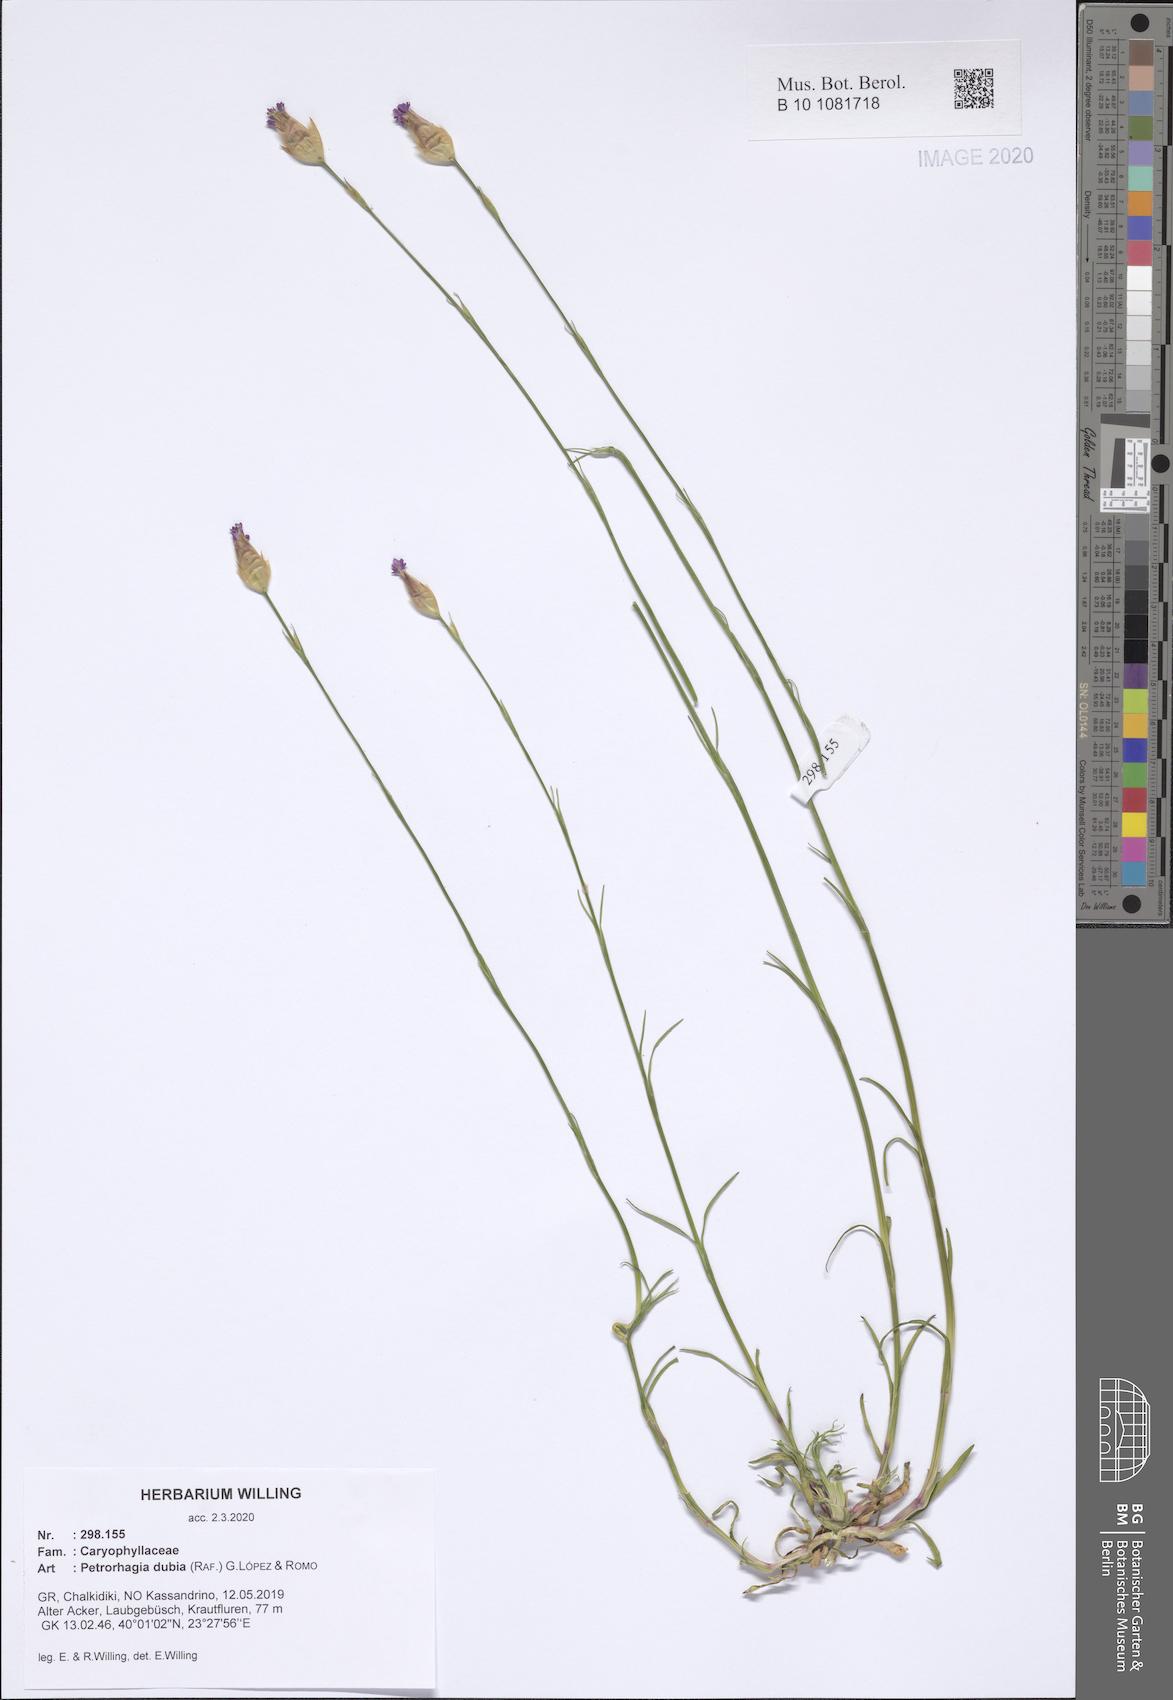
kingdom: Plantae
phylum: Tracheophyta
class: Magnoliopsida
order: Caryophyllales
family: Caryophyllaceae
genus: Petrorhagia
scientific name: Petrorhagia dubia
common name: Hairypink
